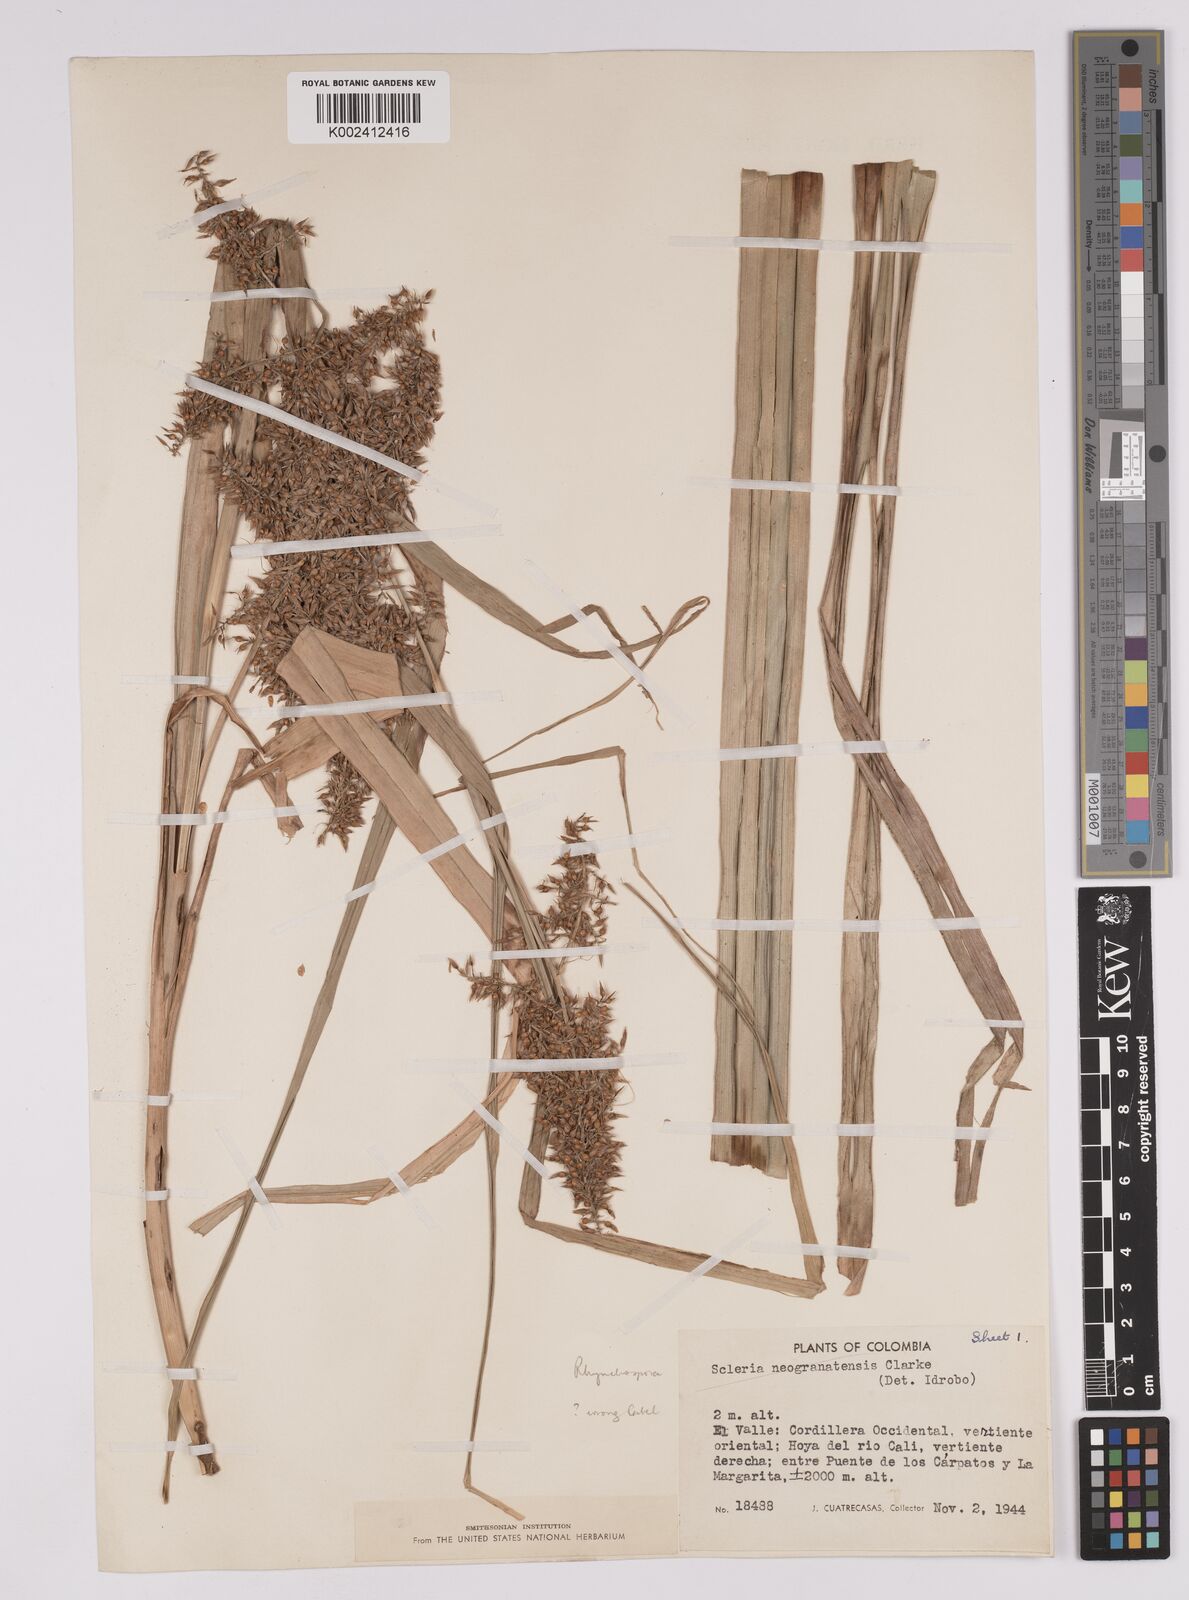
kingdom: Plantae
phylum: Tracheophyta
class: Liliopsida
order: Poales
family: Cyperaceae
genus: Rhynchospora
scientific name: Rhynchospora hieronymi
